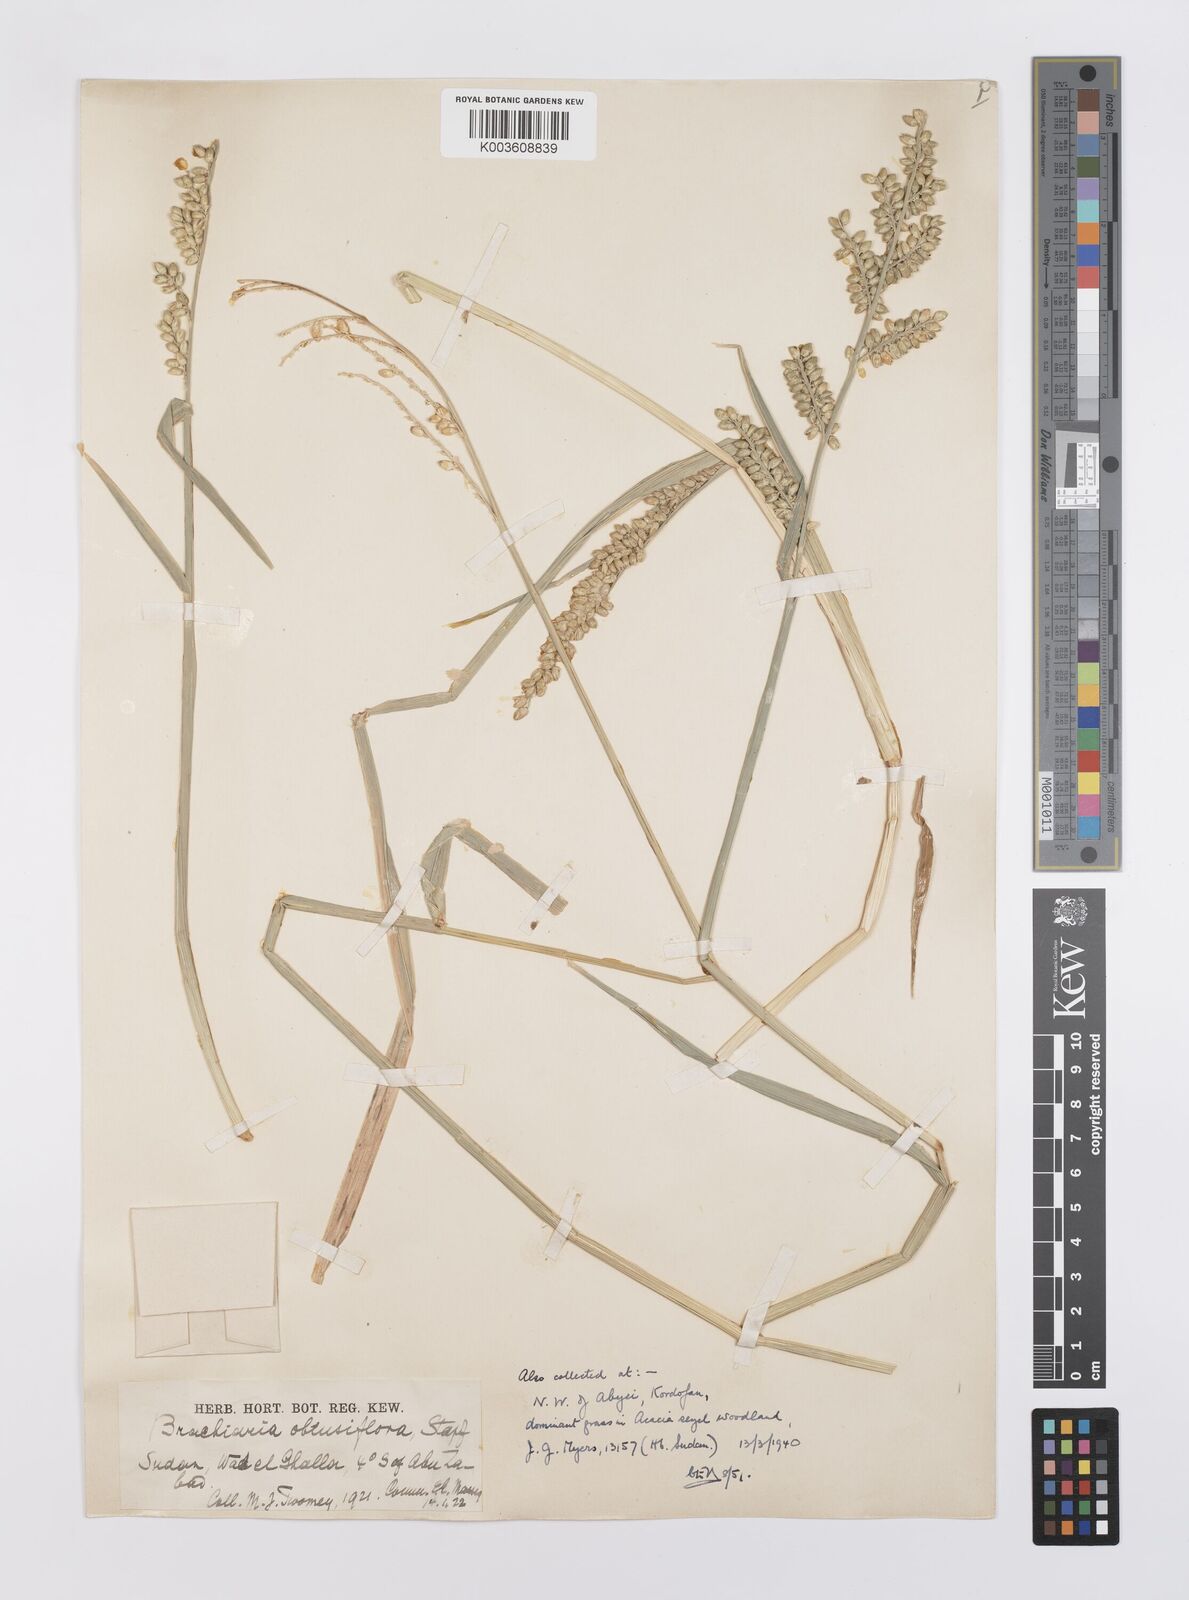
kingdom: Plantae
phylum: Tracheophyta
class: Liliopsida
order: Poales
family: Poaceae
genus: Echinochloa
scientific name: Echinochloa rotundiflora
